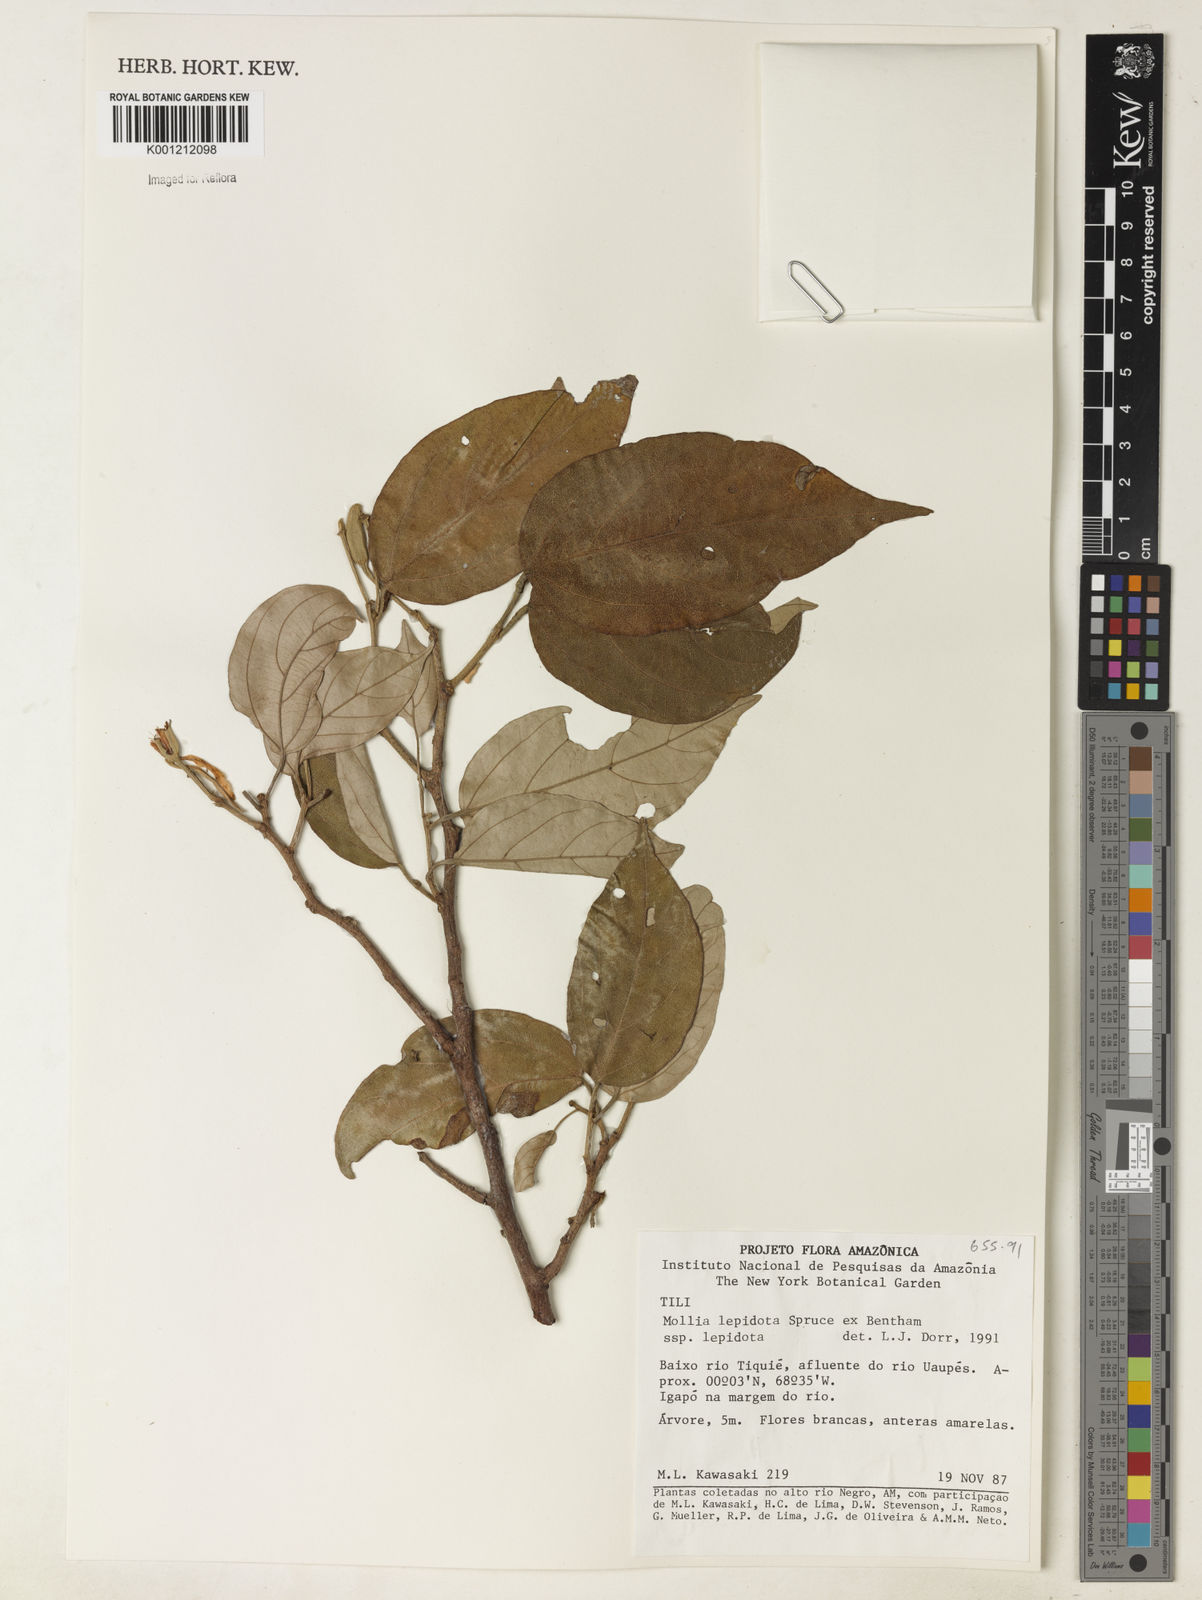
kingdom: Plantae
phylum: Tracheophyta
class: Magnoliopsida
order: Malvales
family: Malvaceae
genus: Mollia
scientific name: Mollia lepidota
